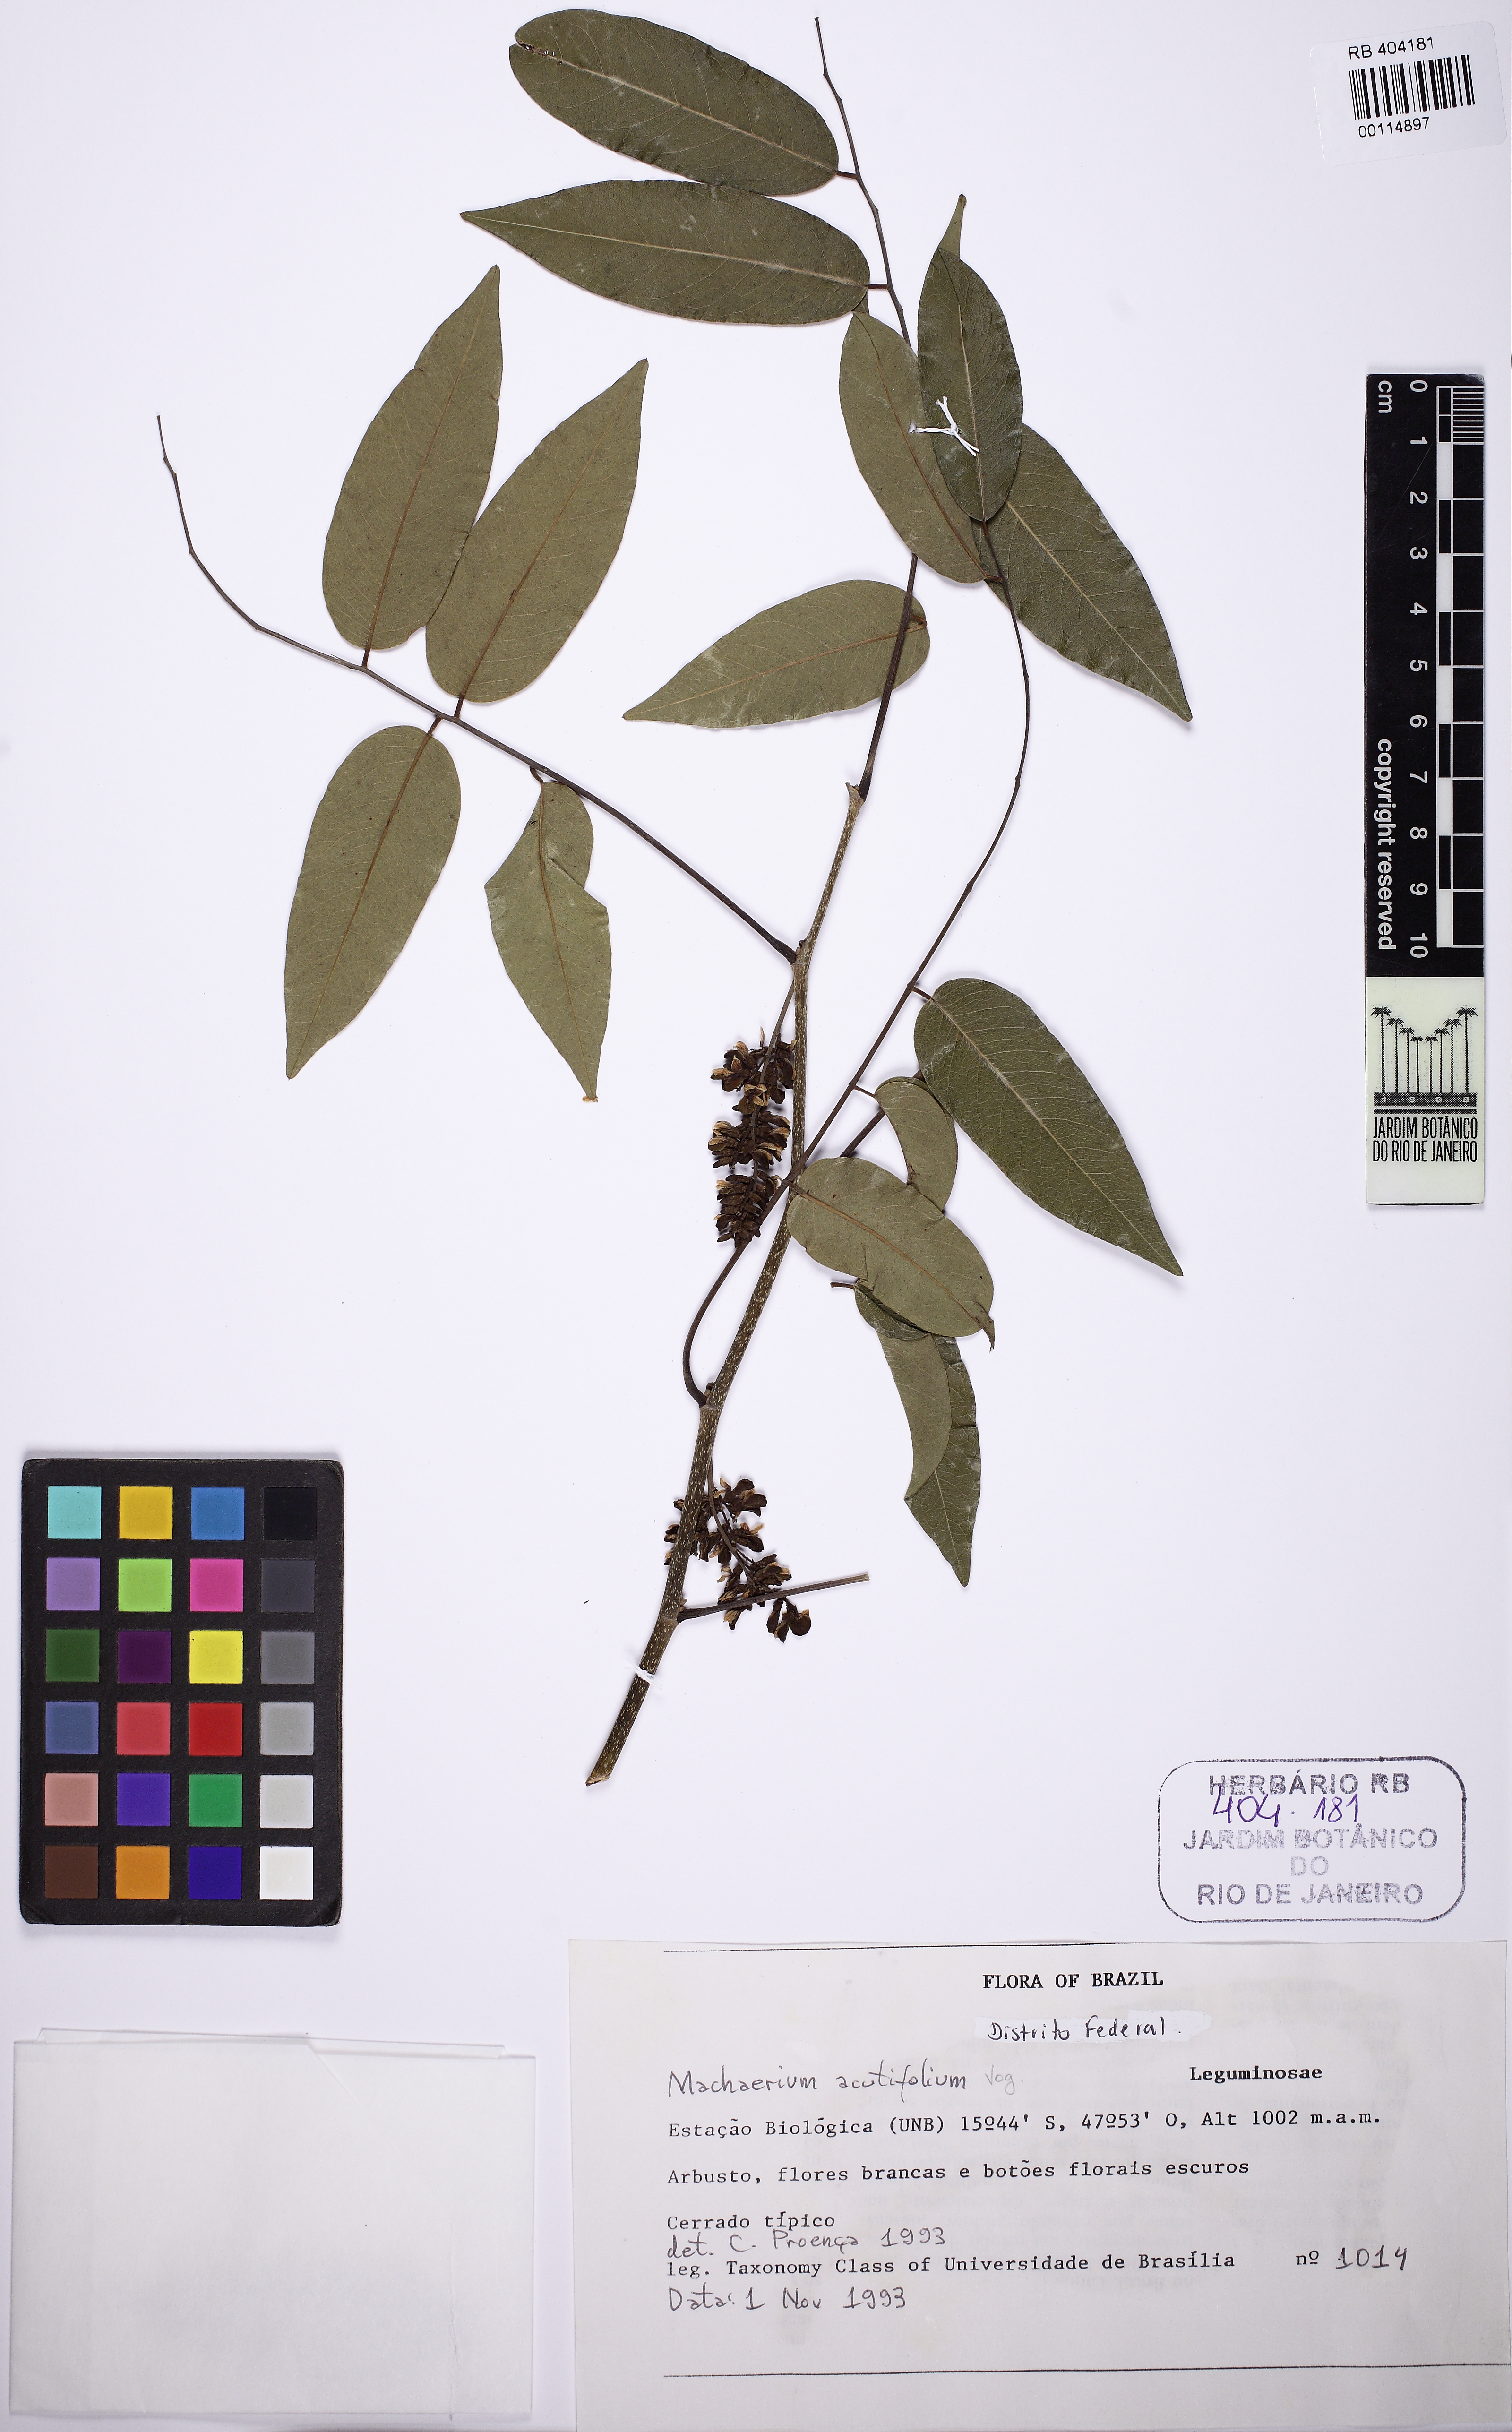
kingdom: Plantae
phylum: Tracheophyta
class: Magnoliopsida
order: Fabales
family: Fabaceae
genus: Machaerium
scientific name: Machaerium acutifolium
